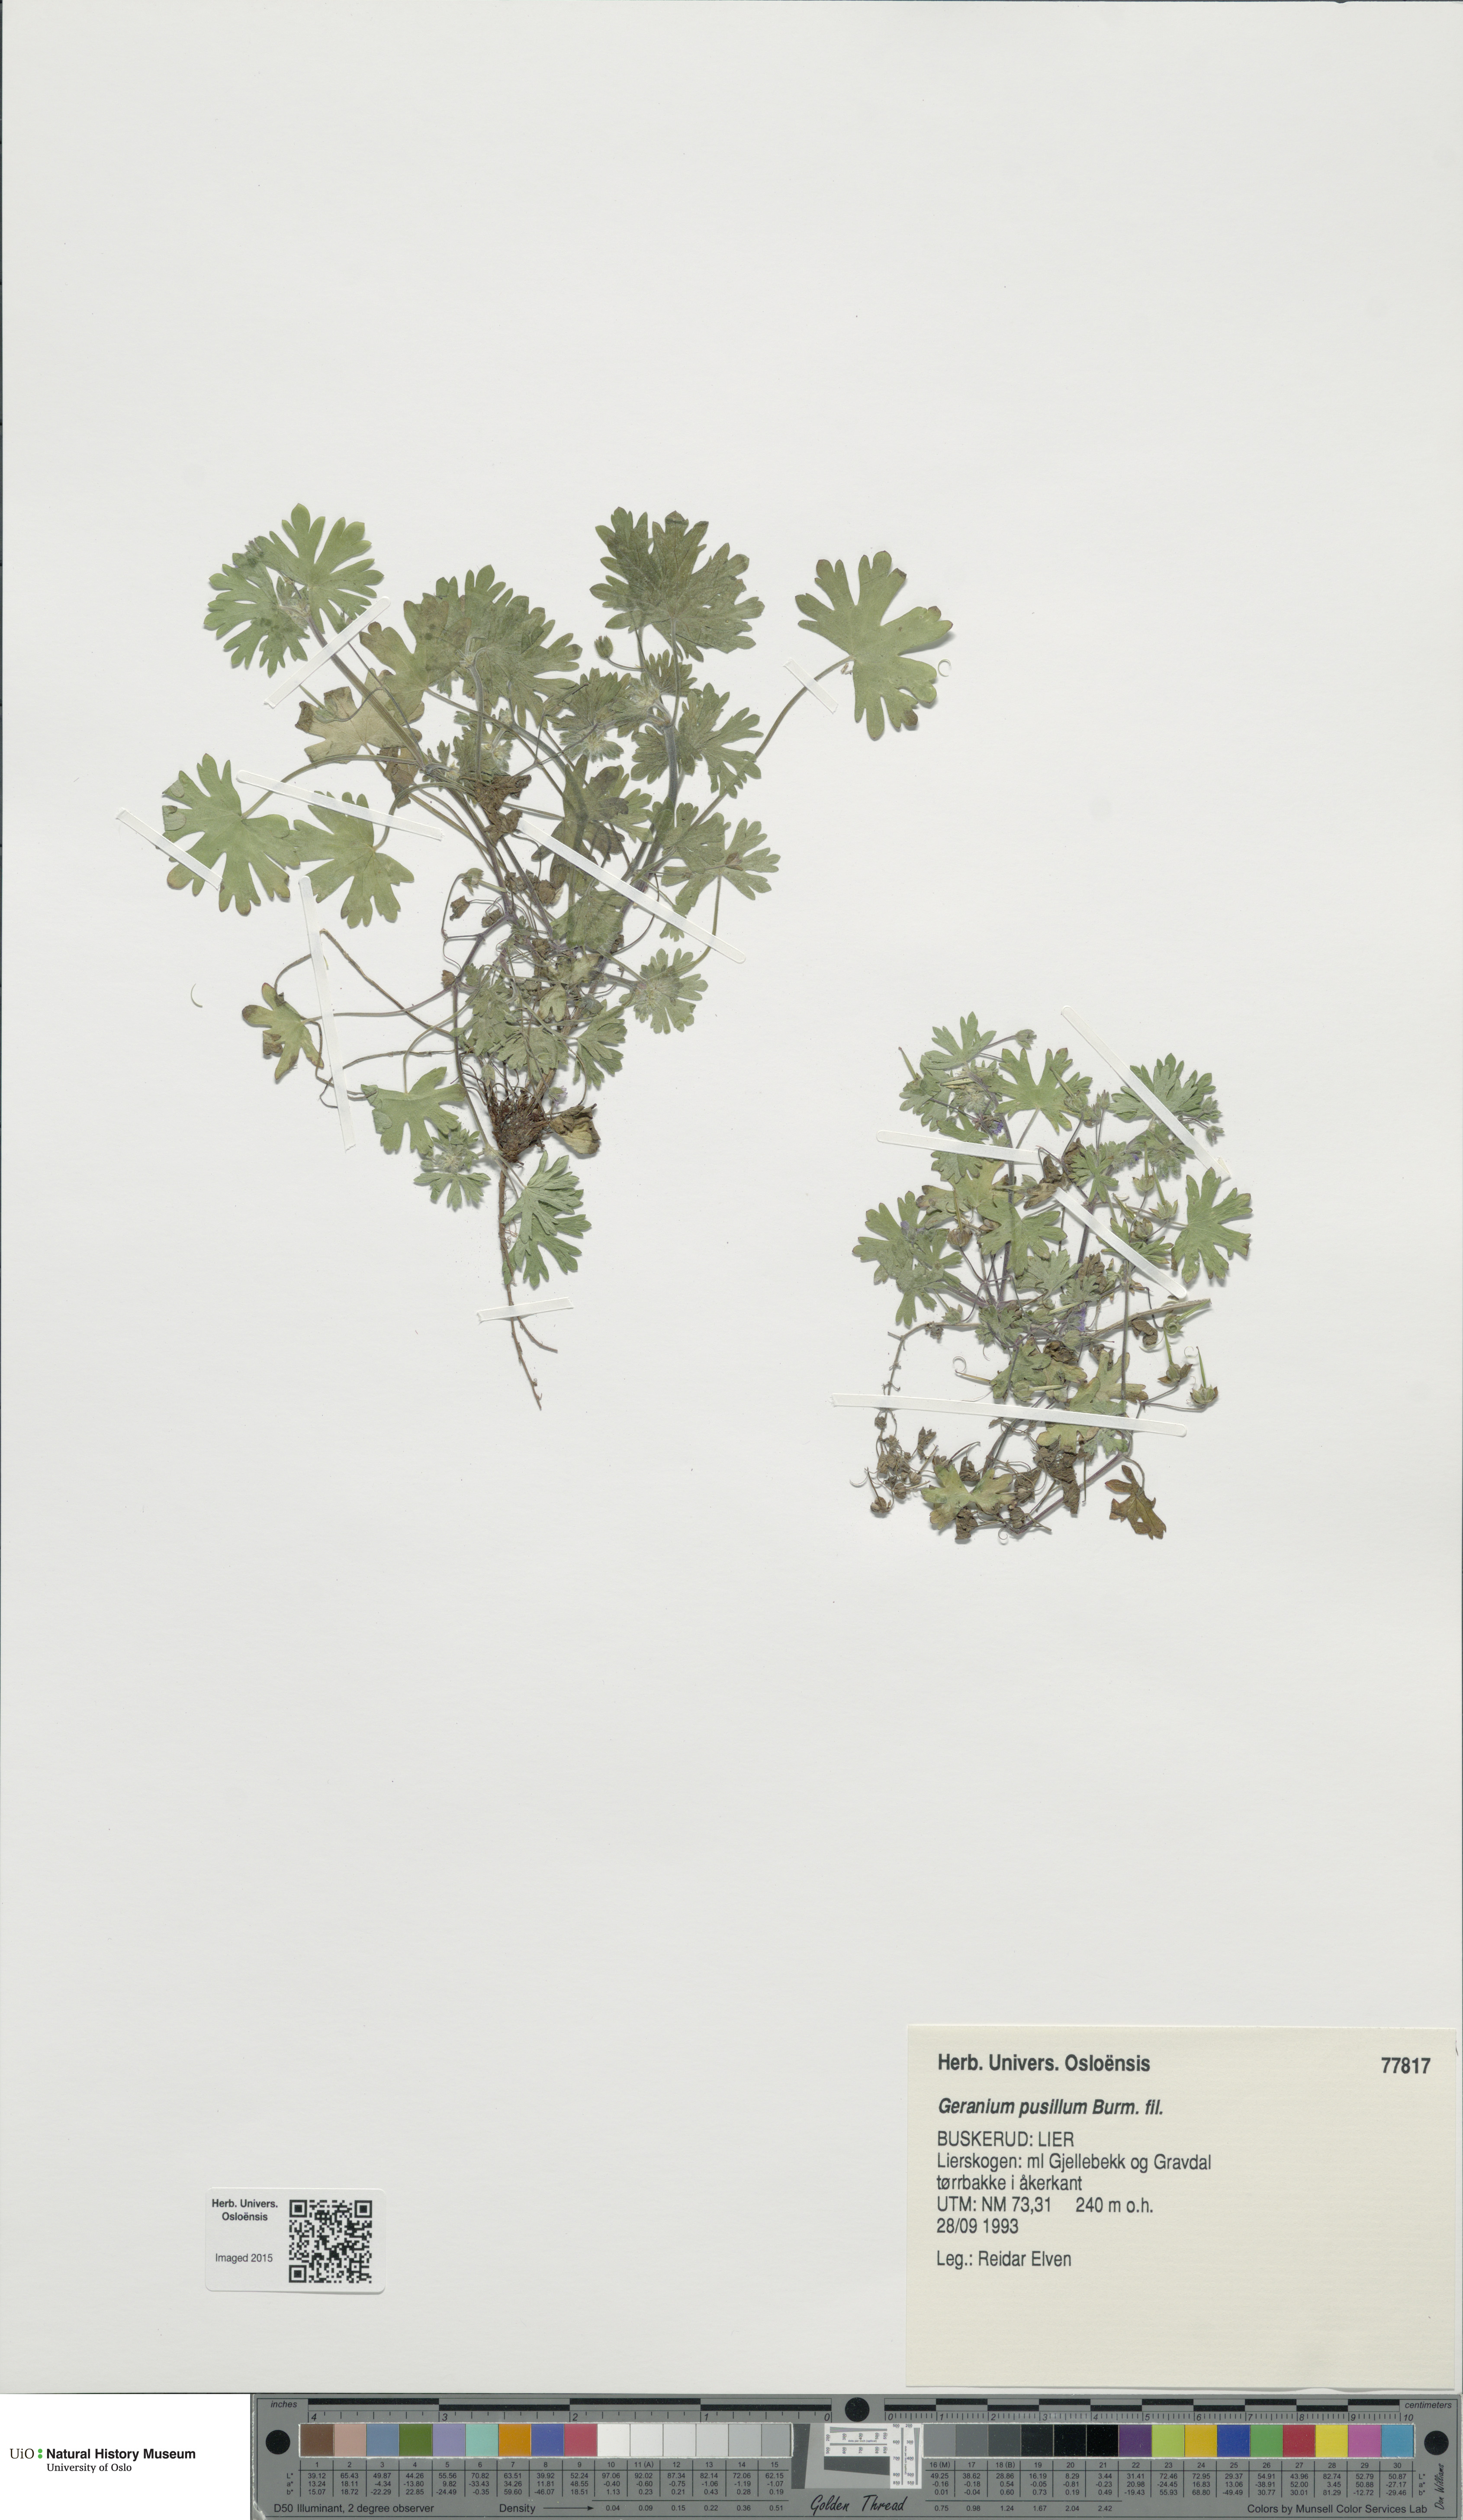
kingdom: Plantae
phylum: Tracheophyta
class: Magnoliopsida
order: Geraniales
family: Geraniaceae
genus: Geranium
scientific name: Geranium pusillum
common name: Small geranium
